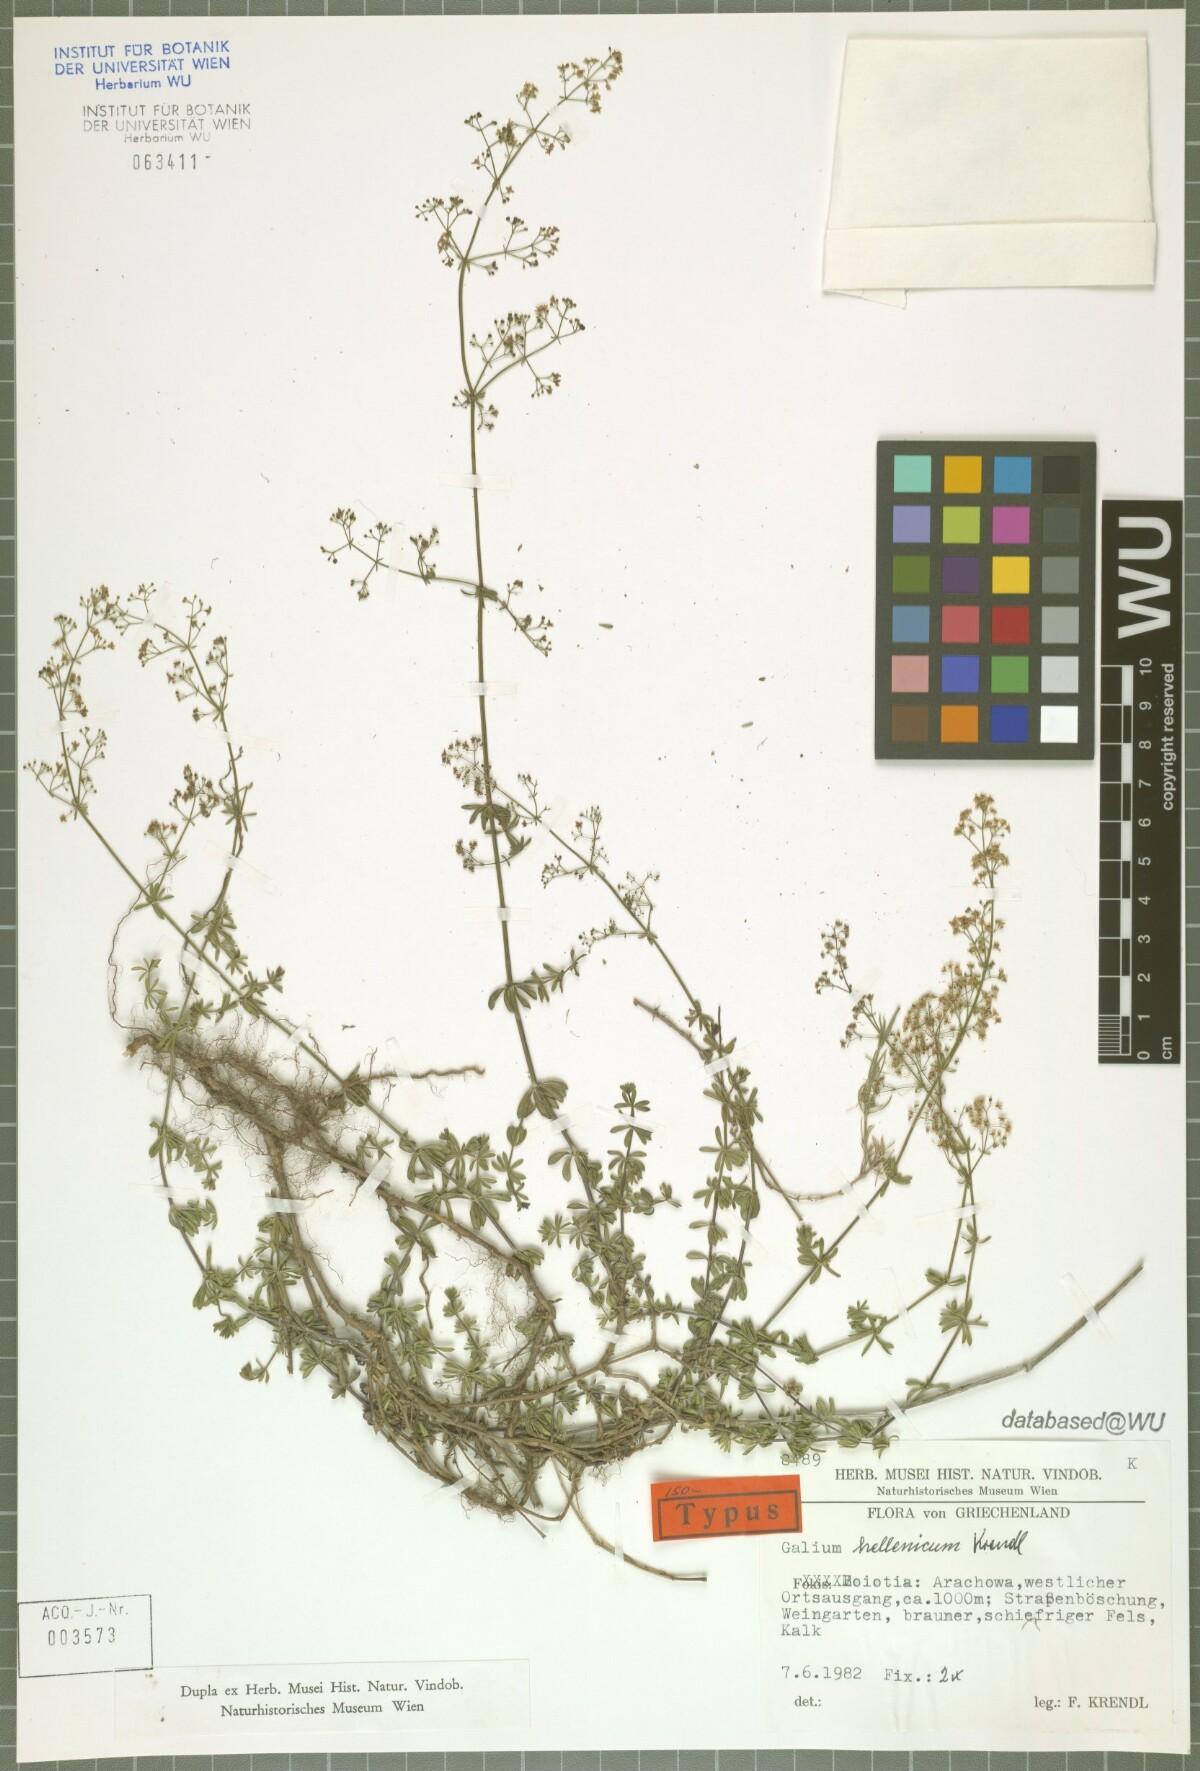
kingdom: Plantae
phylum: Tracheophyta
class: Magnoliopsida
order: Gentianales
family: Rubiaceae
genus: Galium
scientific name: Galium hellenicum
